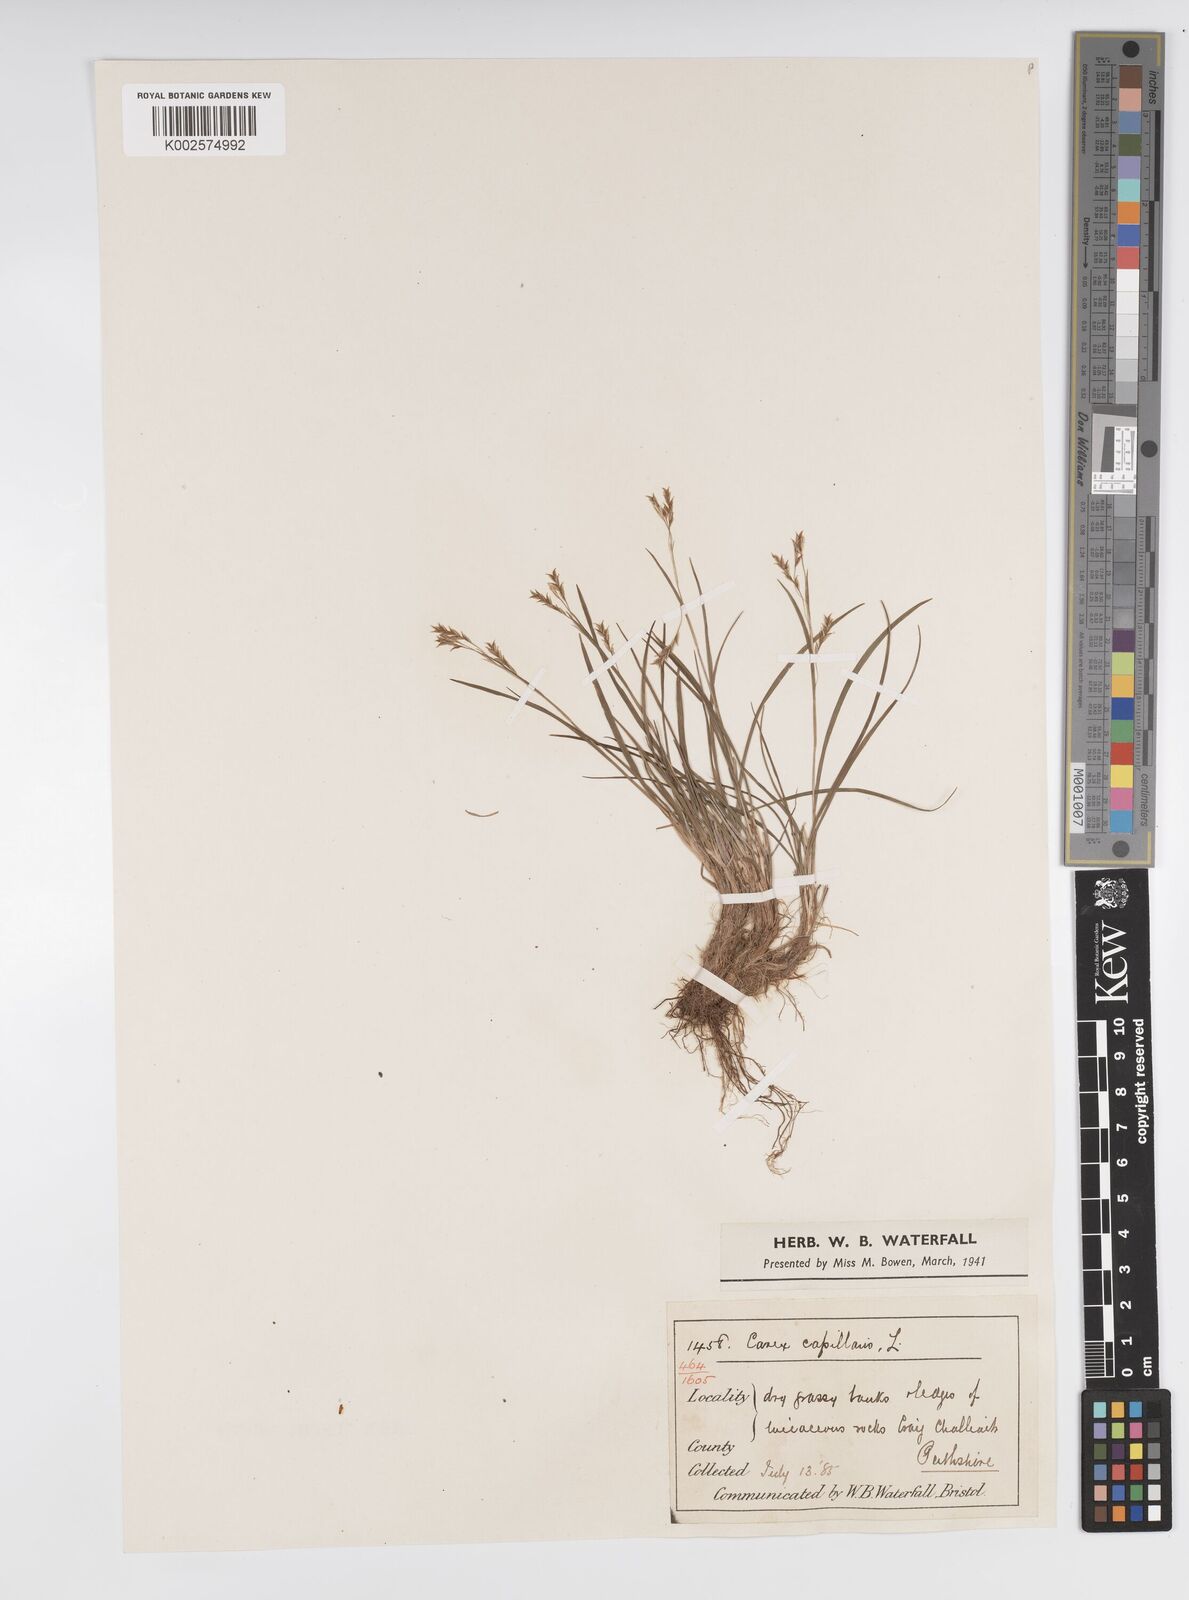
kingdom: Plantae
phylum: Tracheophyta
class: Liliopsida
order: Poales
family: Cyperaceae
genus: Carex
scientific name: Carex capillaris
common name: Hair sedge
